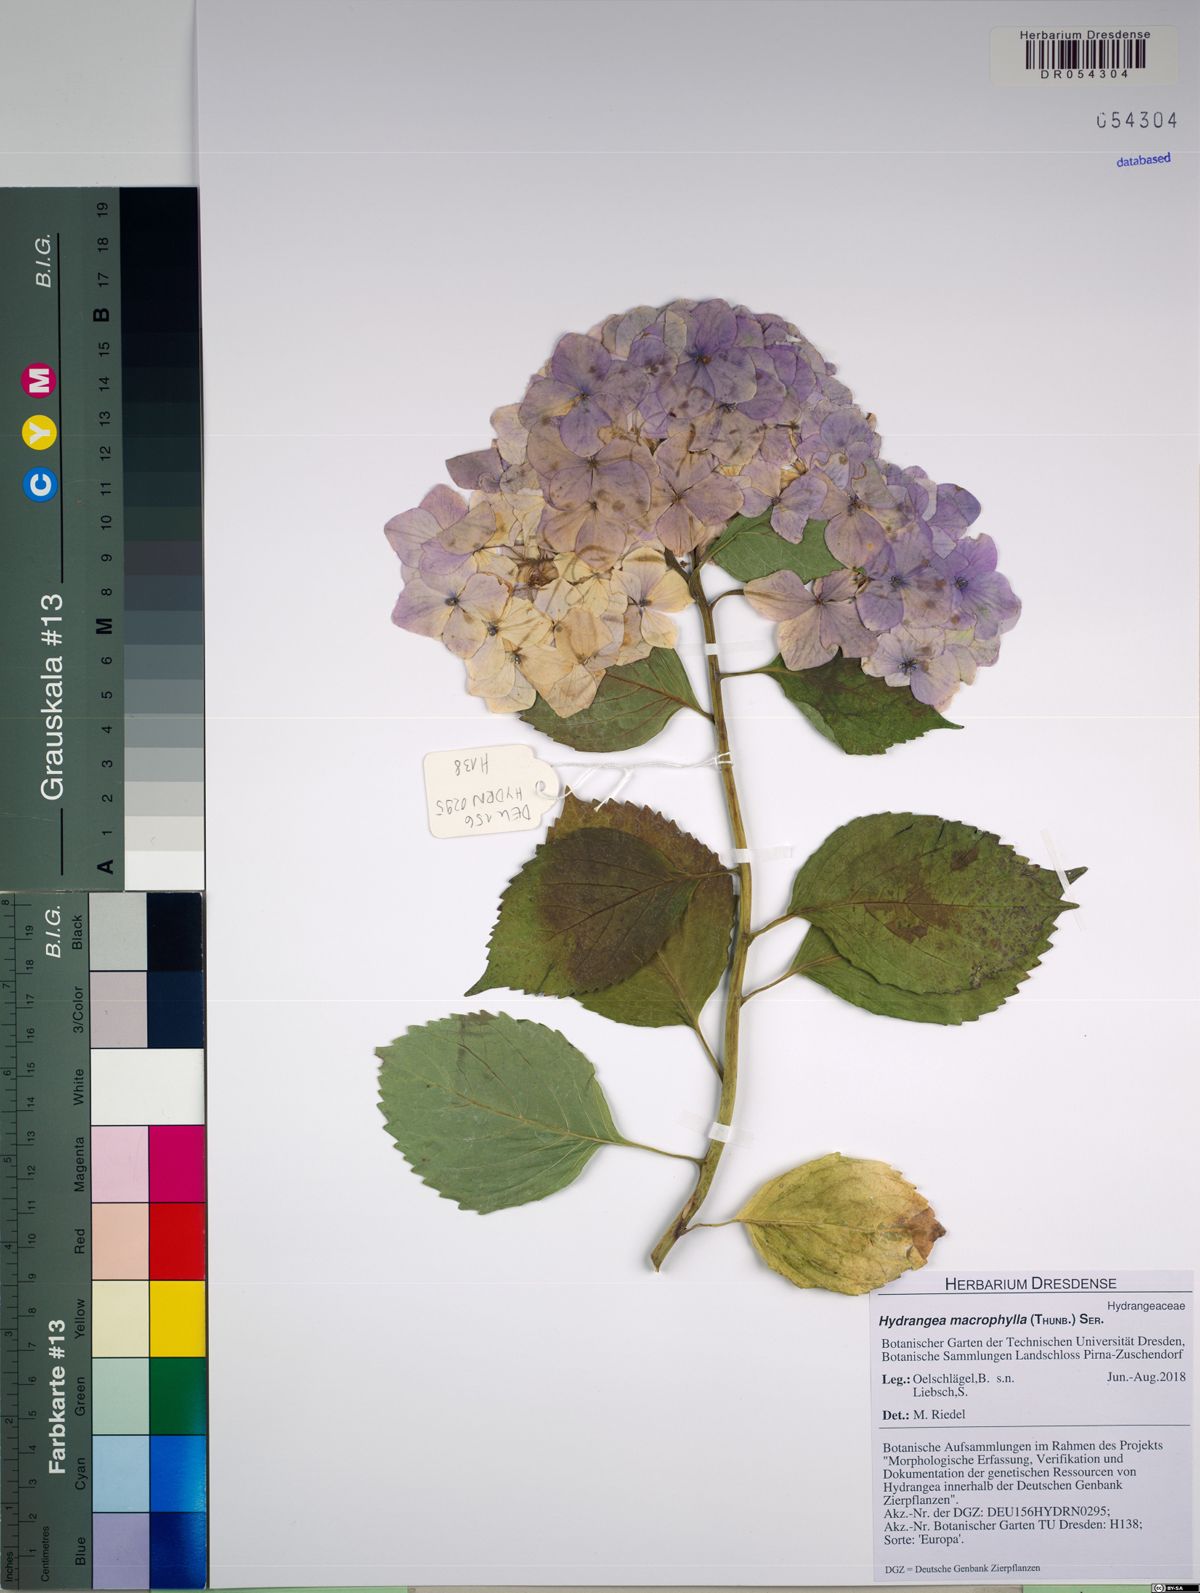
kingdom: Plantae
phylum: Tracheophyta
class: Magnoliopsida
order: Cornales
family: Hydrangeaceae
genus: Hydrangea
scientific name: Hydrangea macrophylla
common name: Hydrangea
